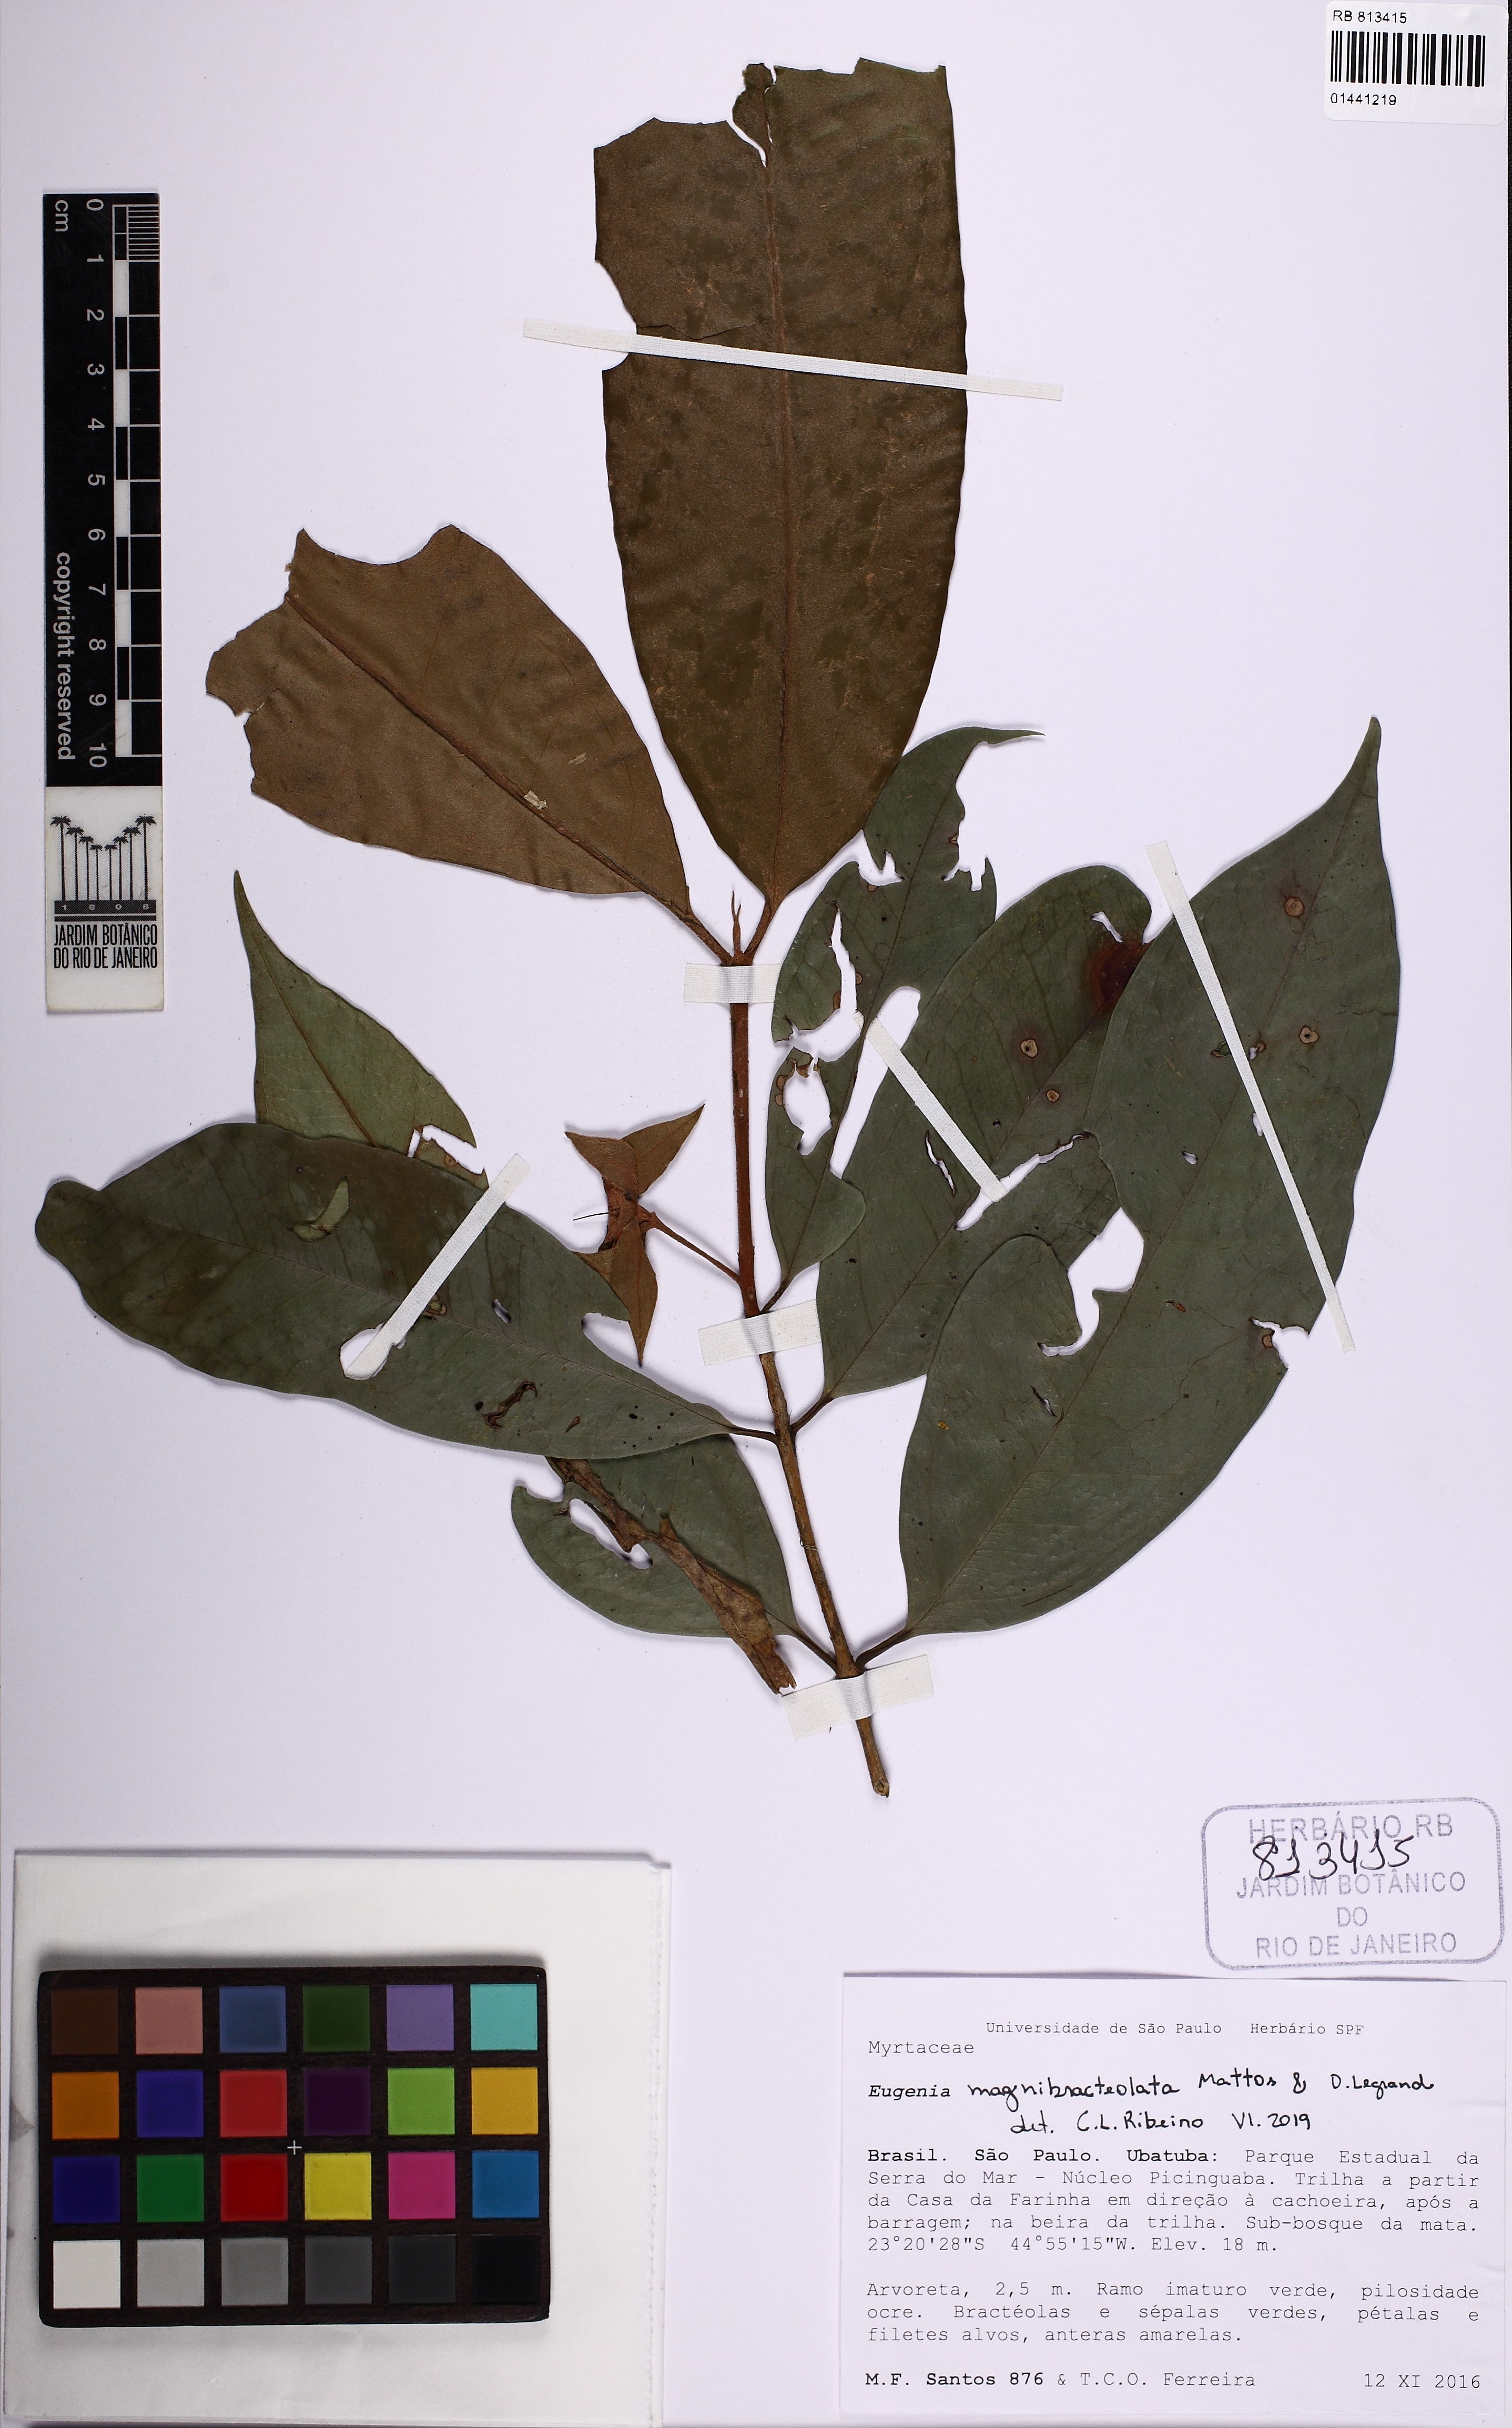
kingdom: Plantae
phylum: Tracheophyta
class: Magnoliopsida
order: Myrtales
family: Myrtaceae
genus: Eugenia
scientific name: Eugenia magnibracteolata
